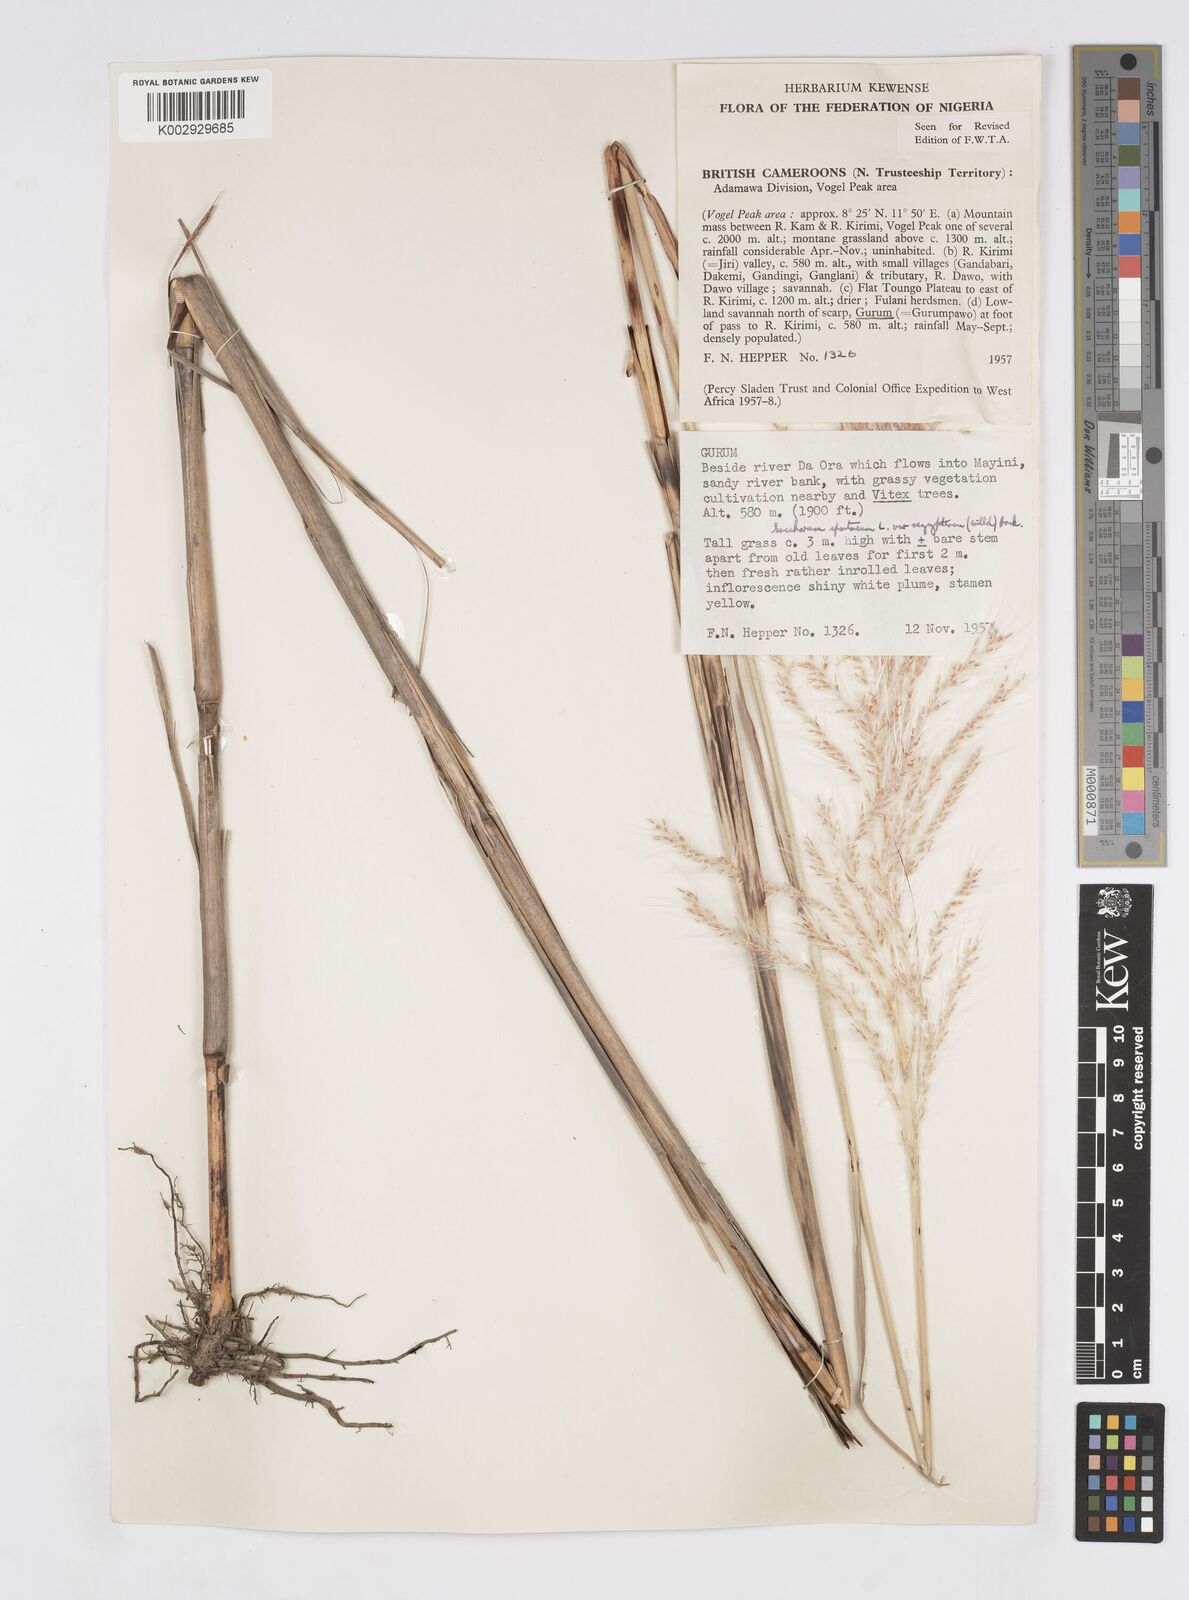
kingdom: Plantae
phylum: Tracheophyta
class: Liliopsida
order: Poales
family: Poaceae
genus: Saccharum
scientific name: Saccharum spontaneum
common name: Wild sugarcane
